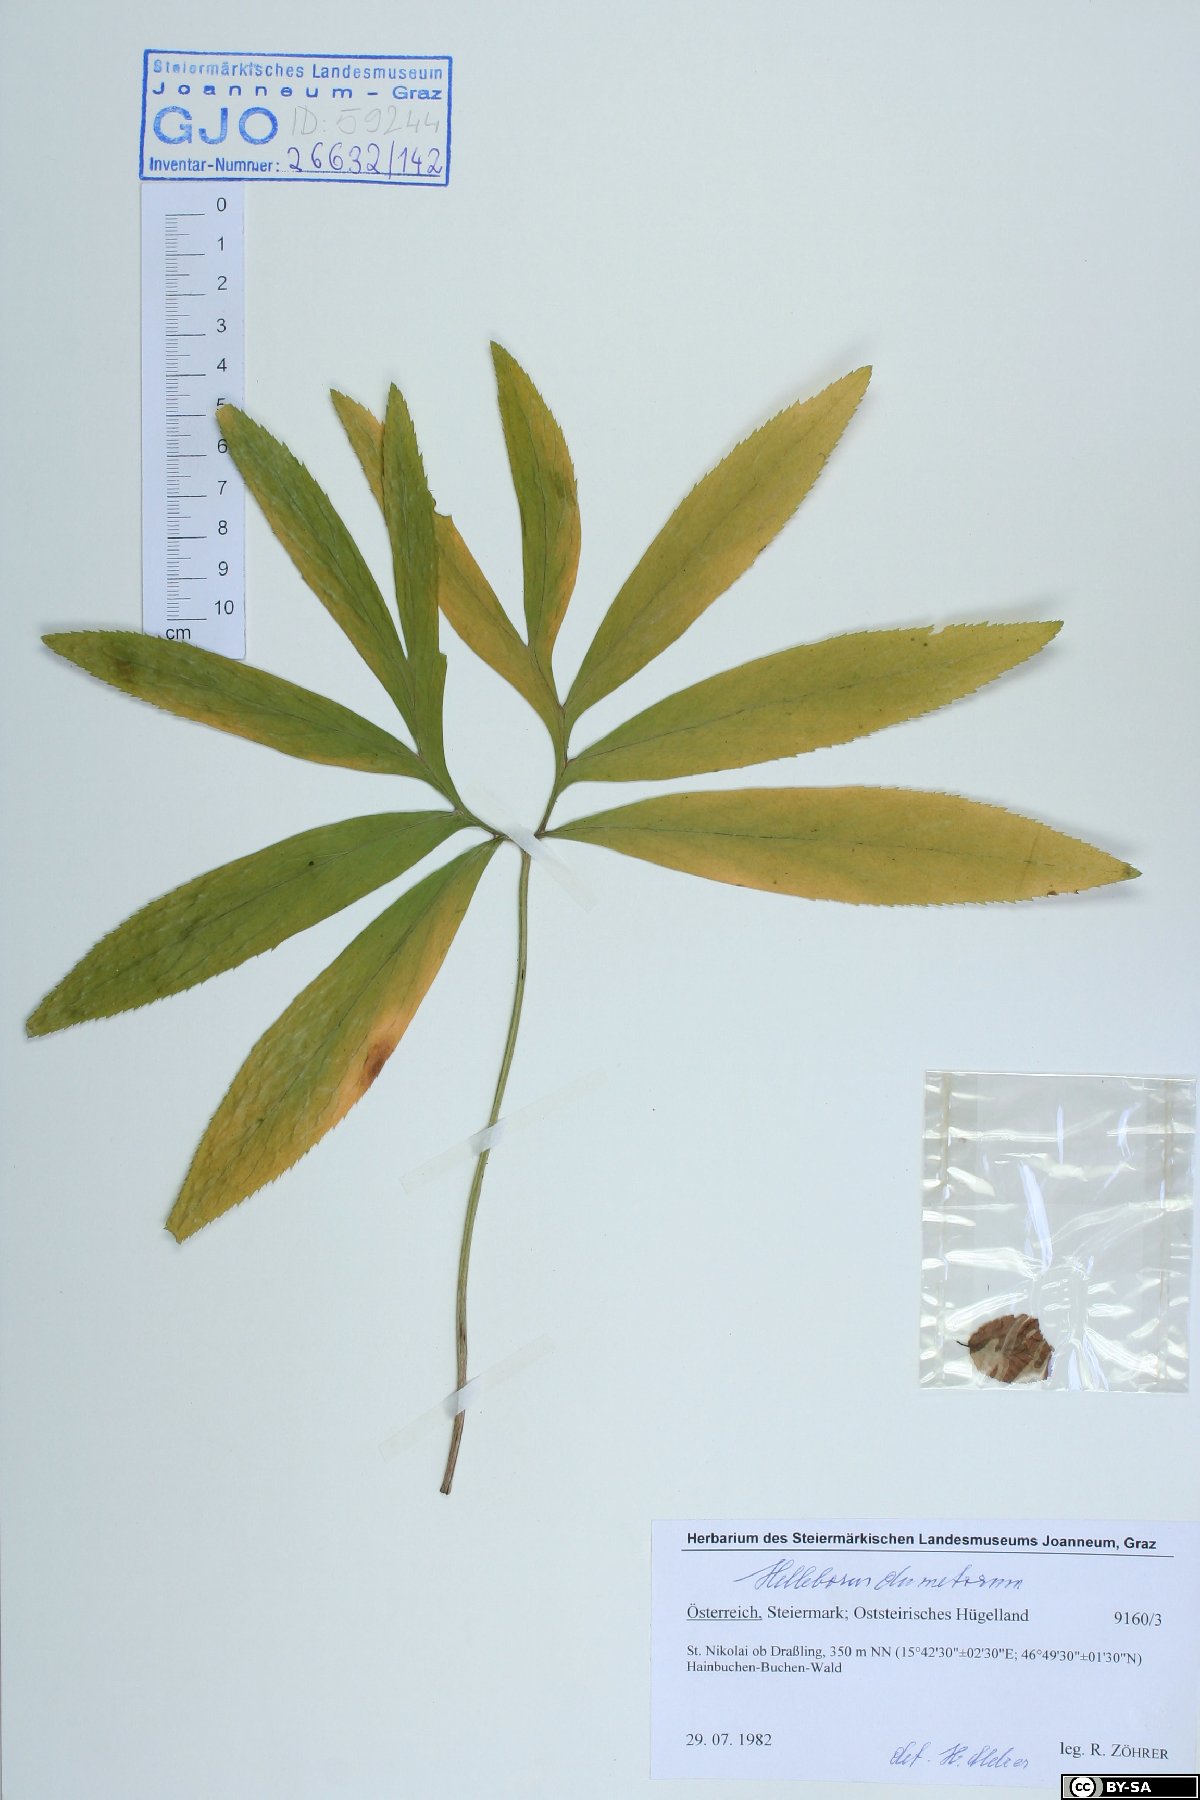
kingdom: Plantae
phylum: Tracheophyta
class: Magnoliopsida
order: Ranunculales
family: Ranunculaceae
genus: Helleborus
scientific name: Helleborus dumetorum
